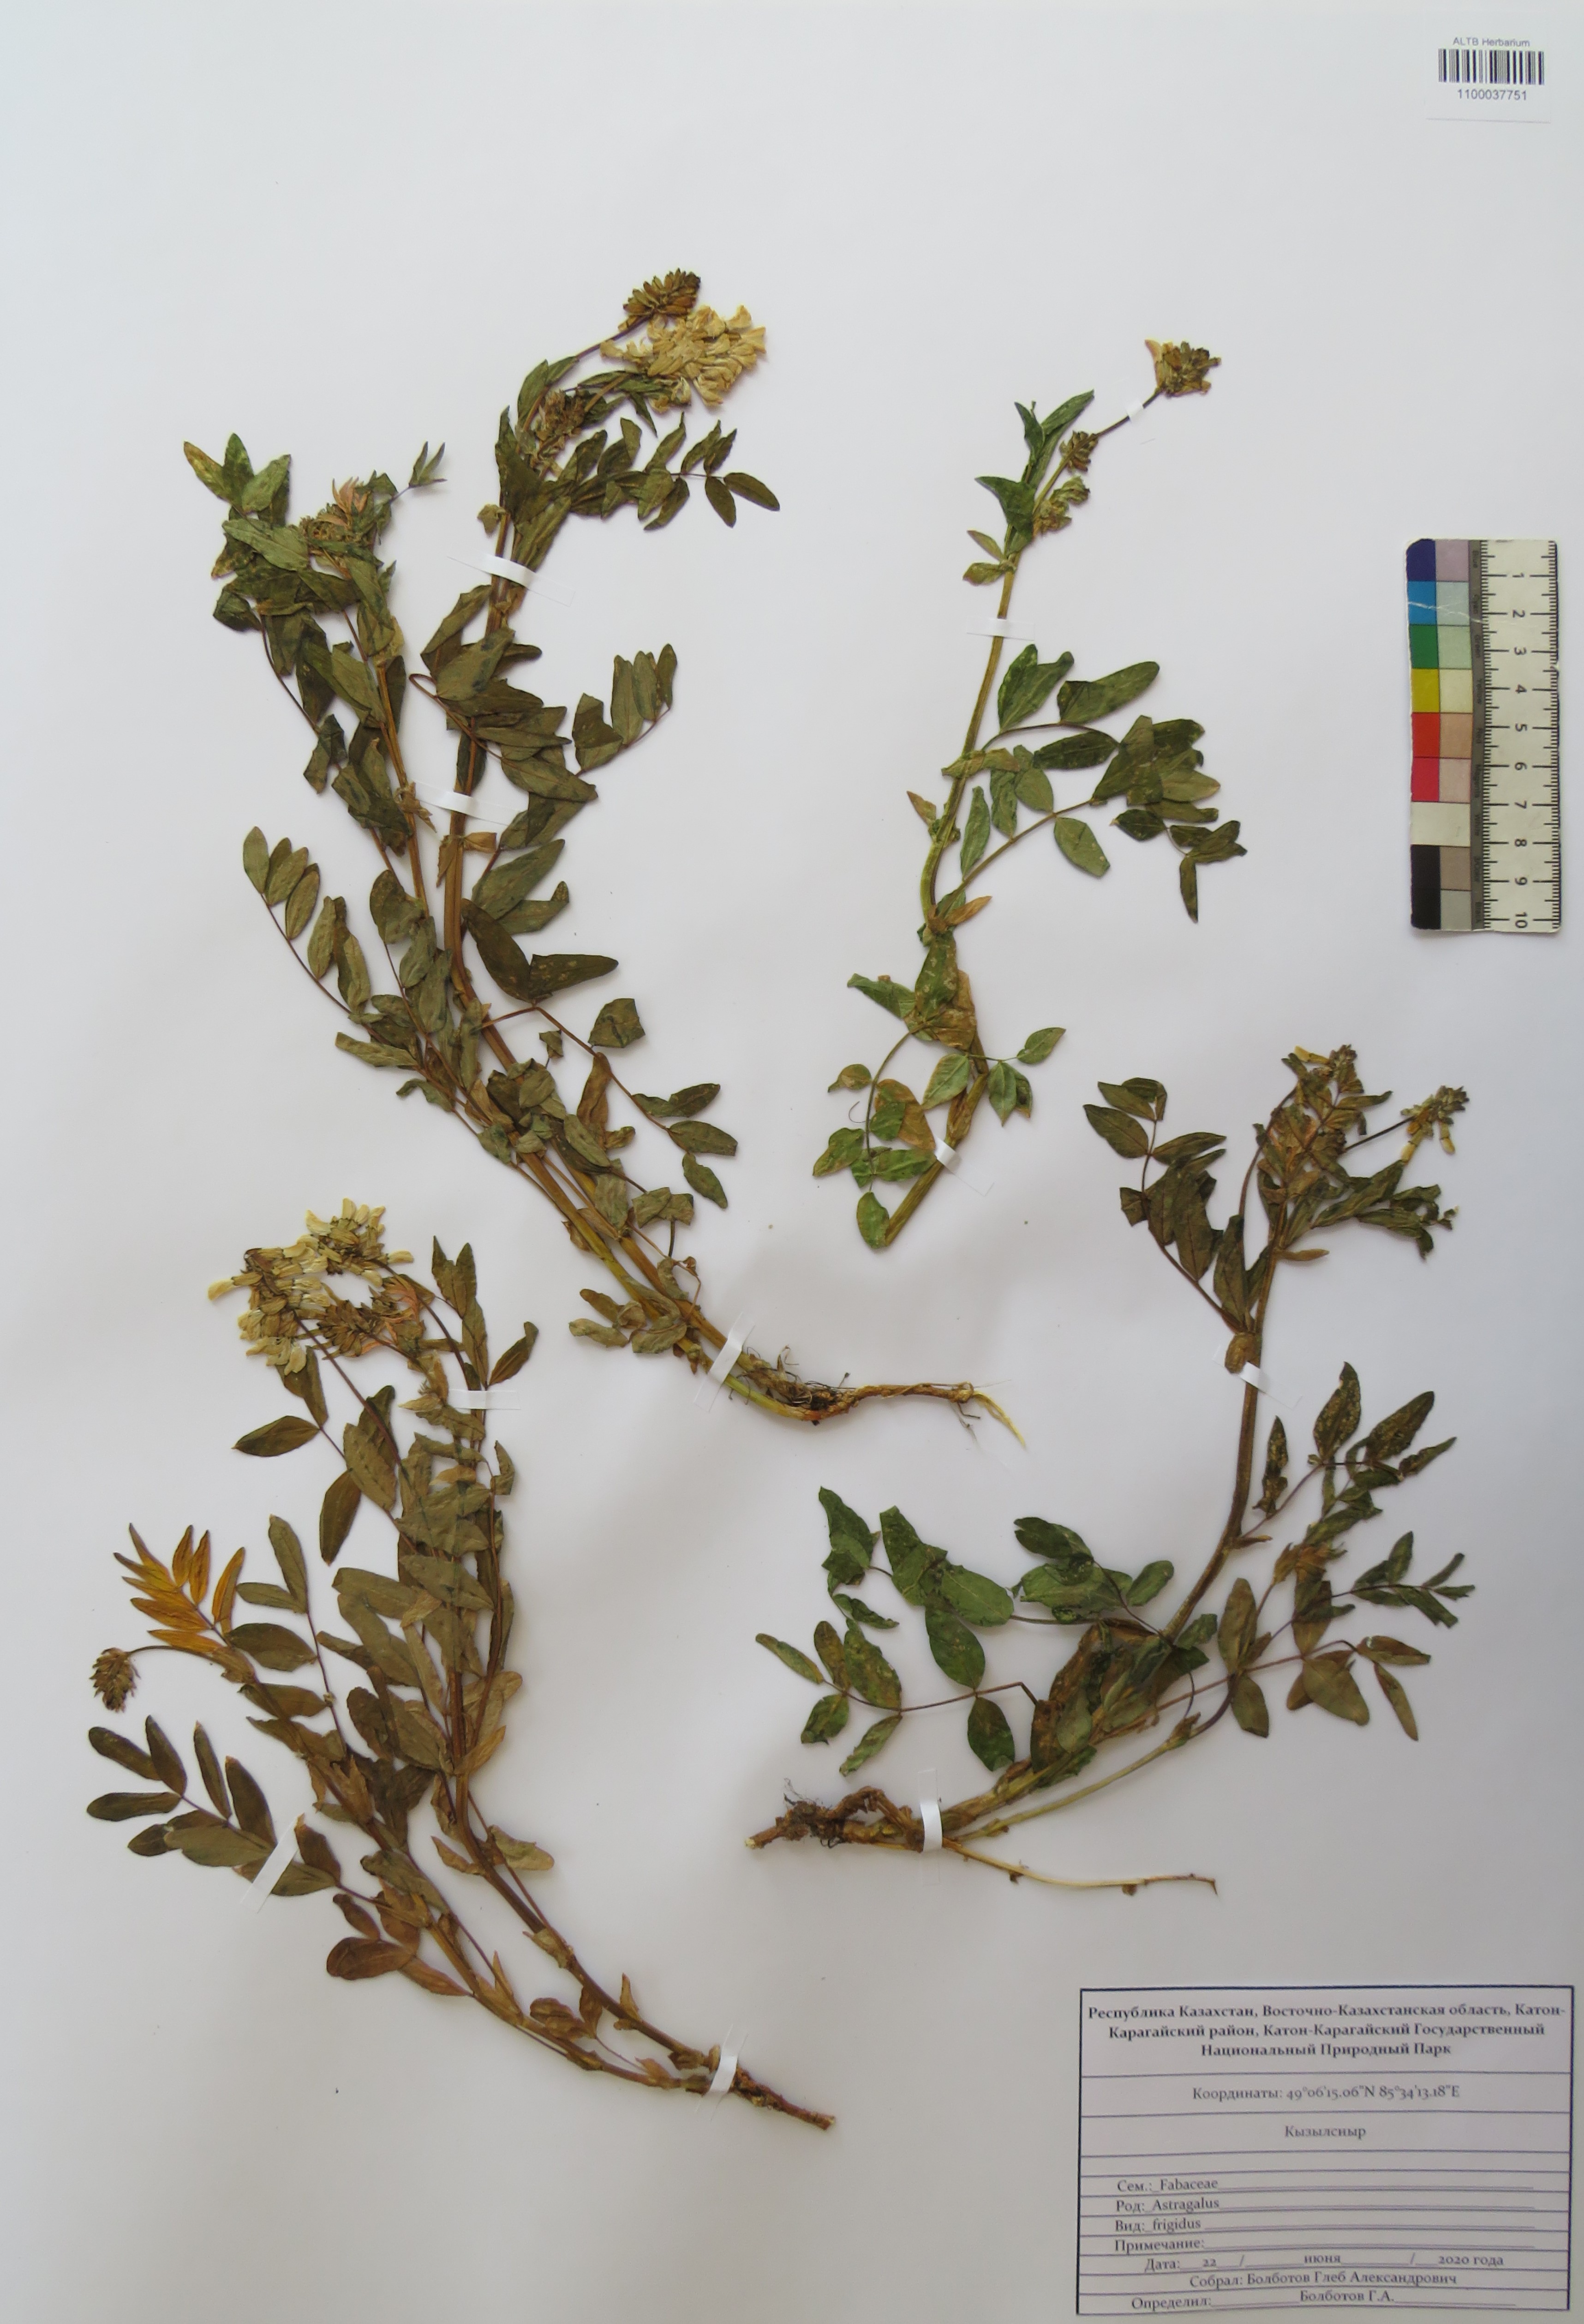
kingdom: Plantae
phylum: Tracheophyta
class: Magnoliopsida
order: Fabales
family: Fabaceae
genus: Astragalus
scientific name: Astragalus frigidus
